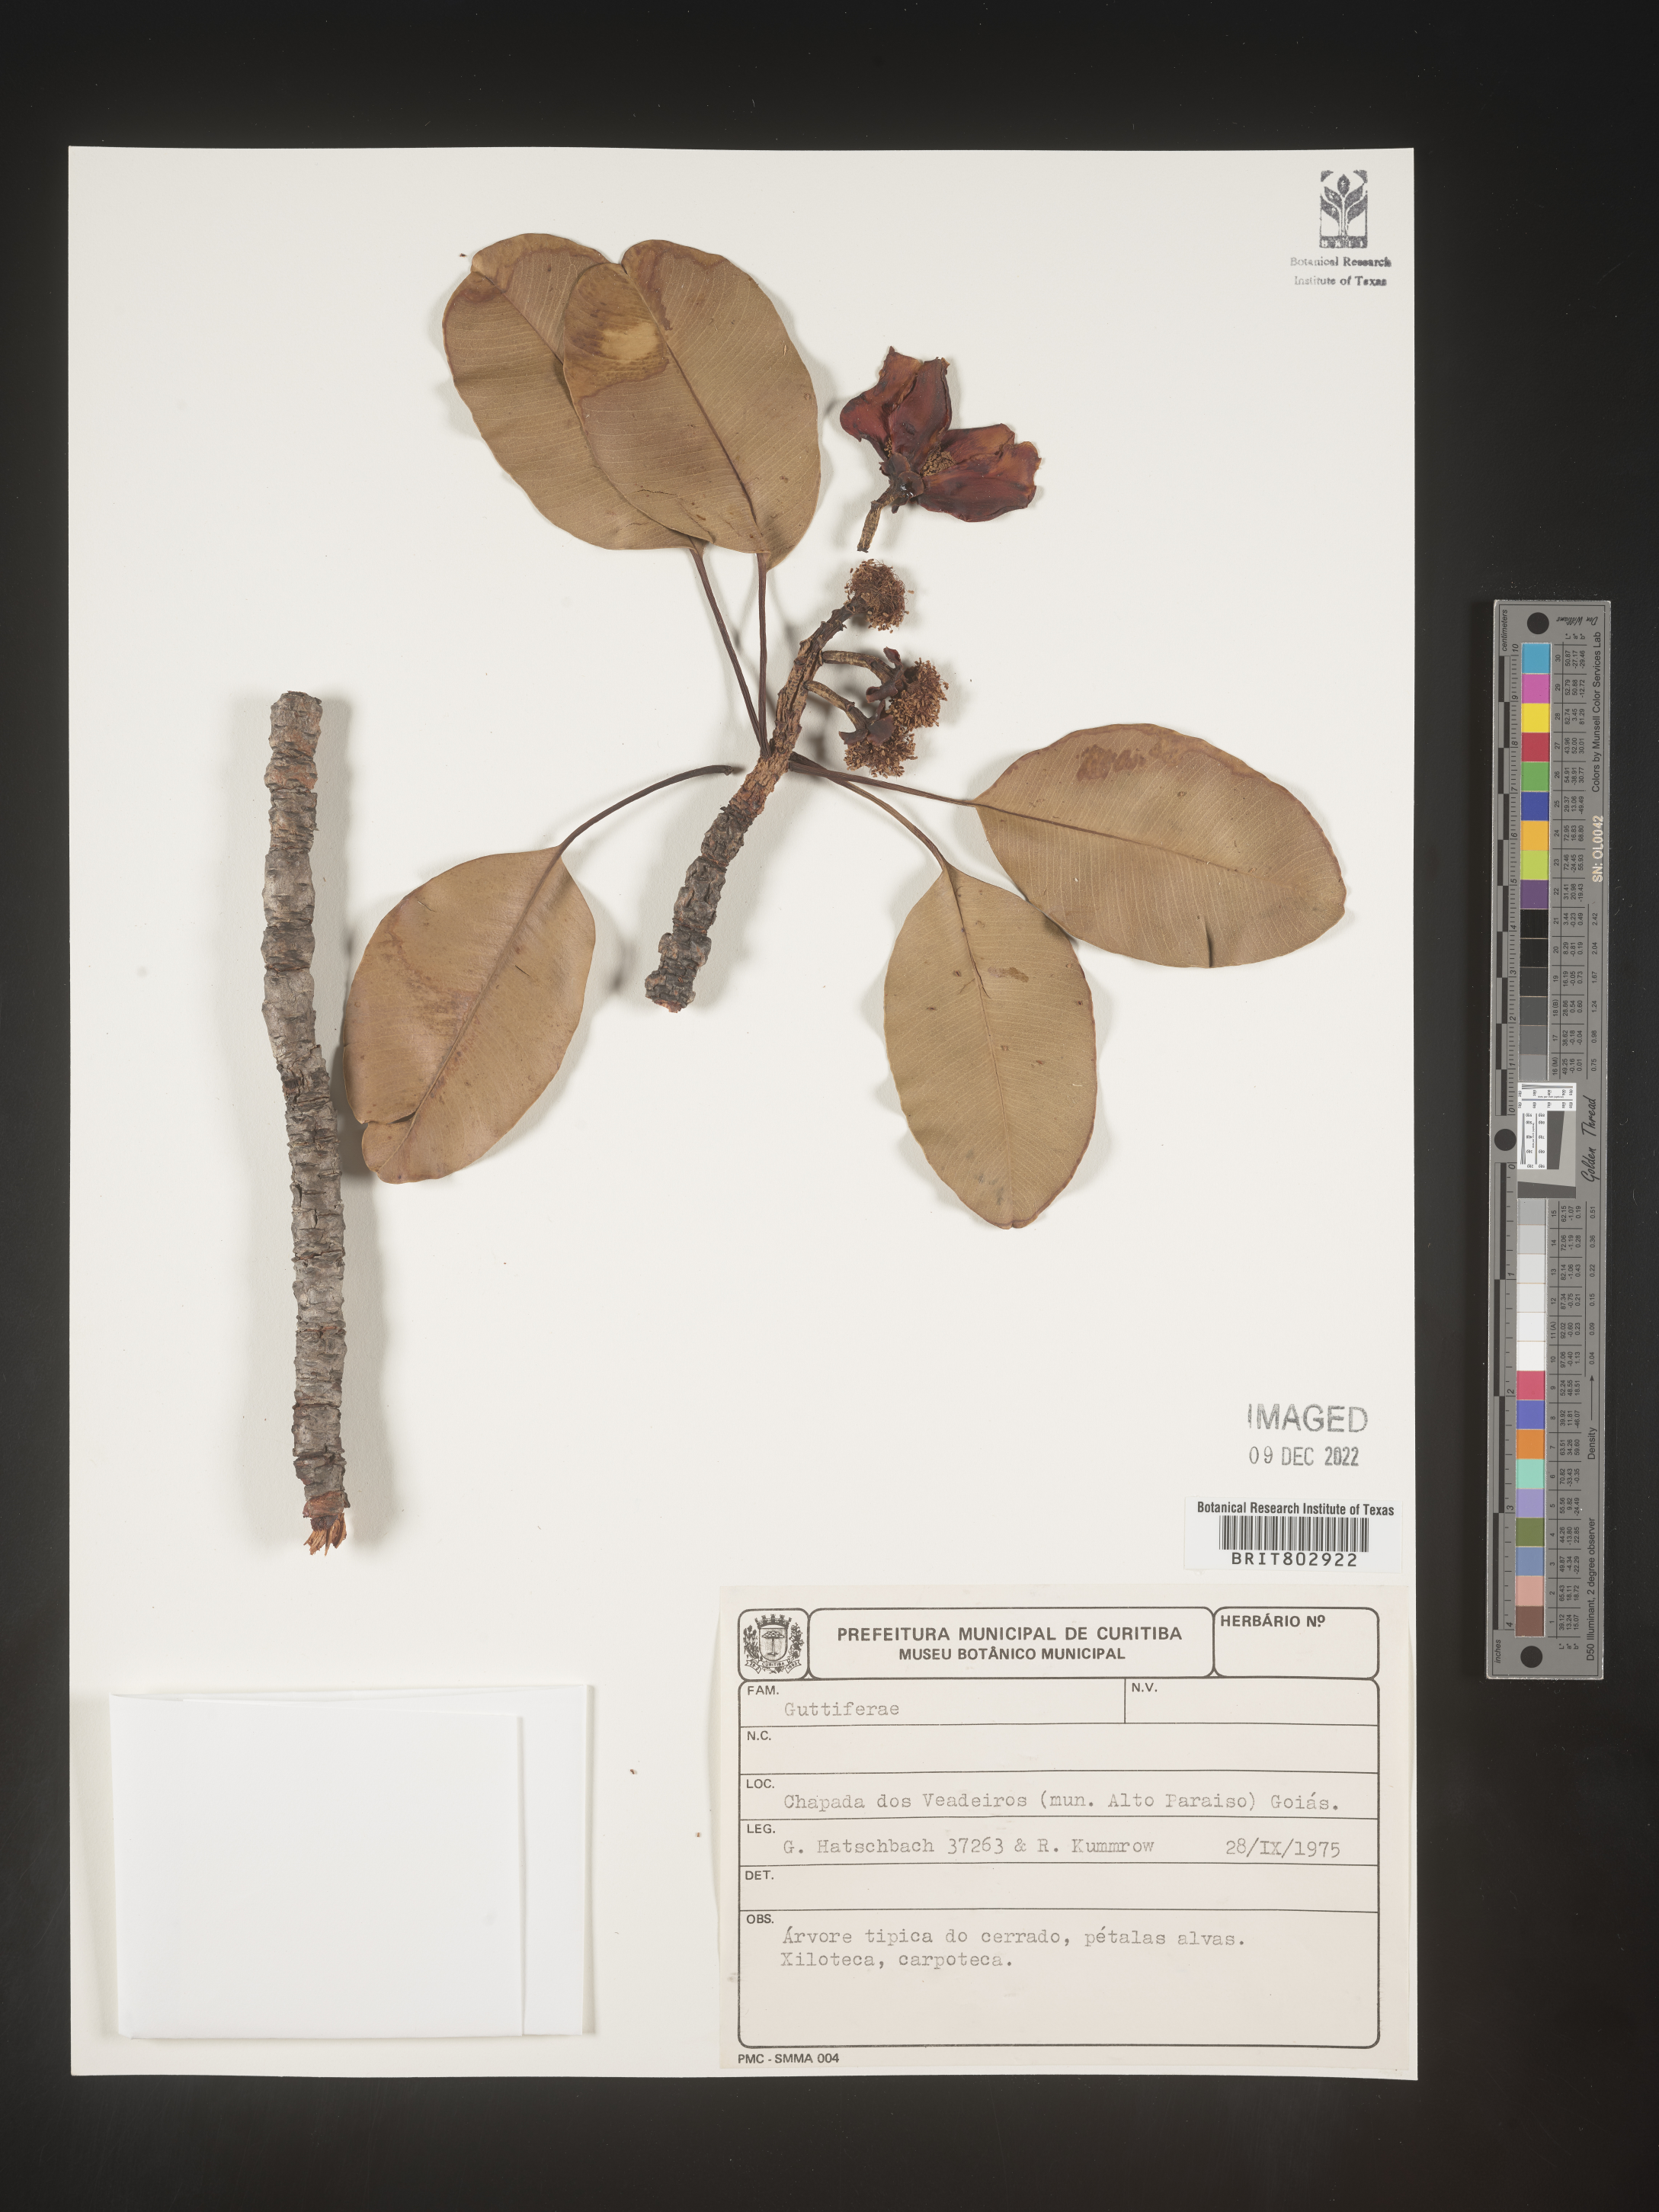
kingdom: Plantae
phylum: Tracheophyta
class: Magnoliopsida
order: Malpighiales
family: Calophyllaceae
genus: Kielmeyera
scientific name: Kielmeyera
